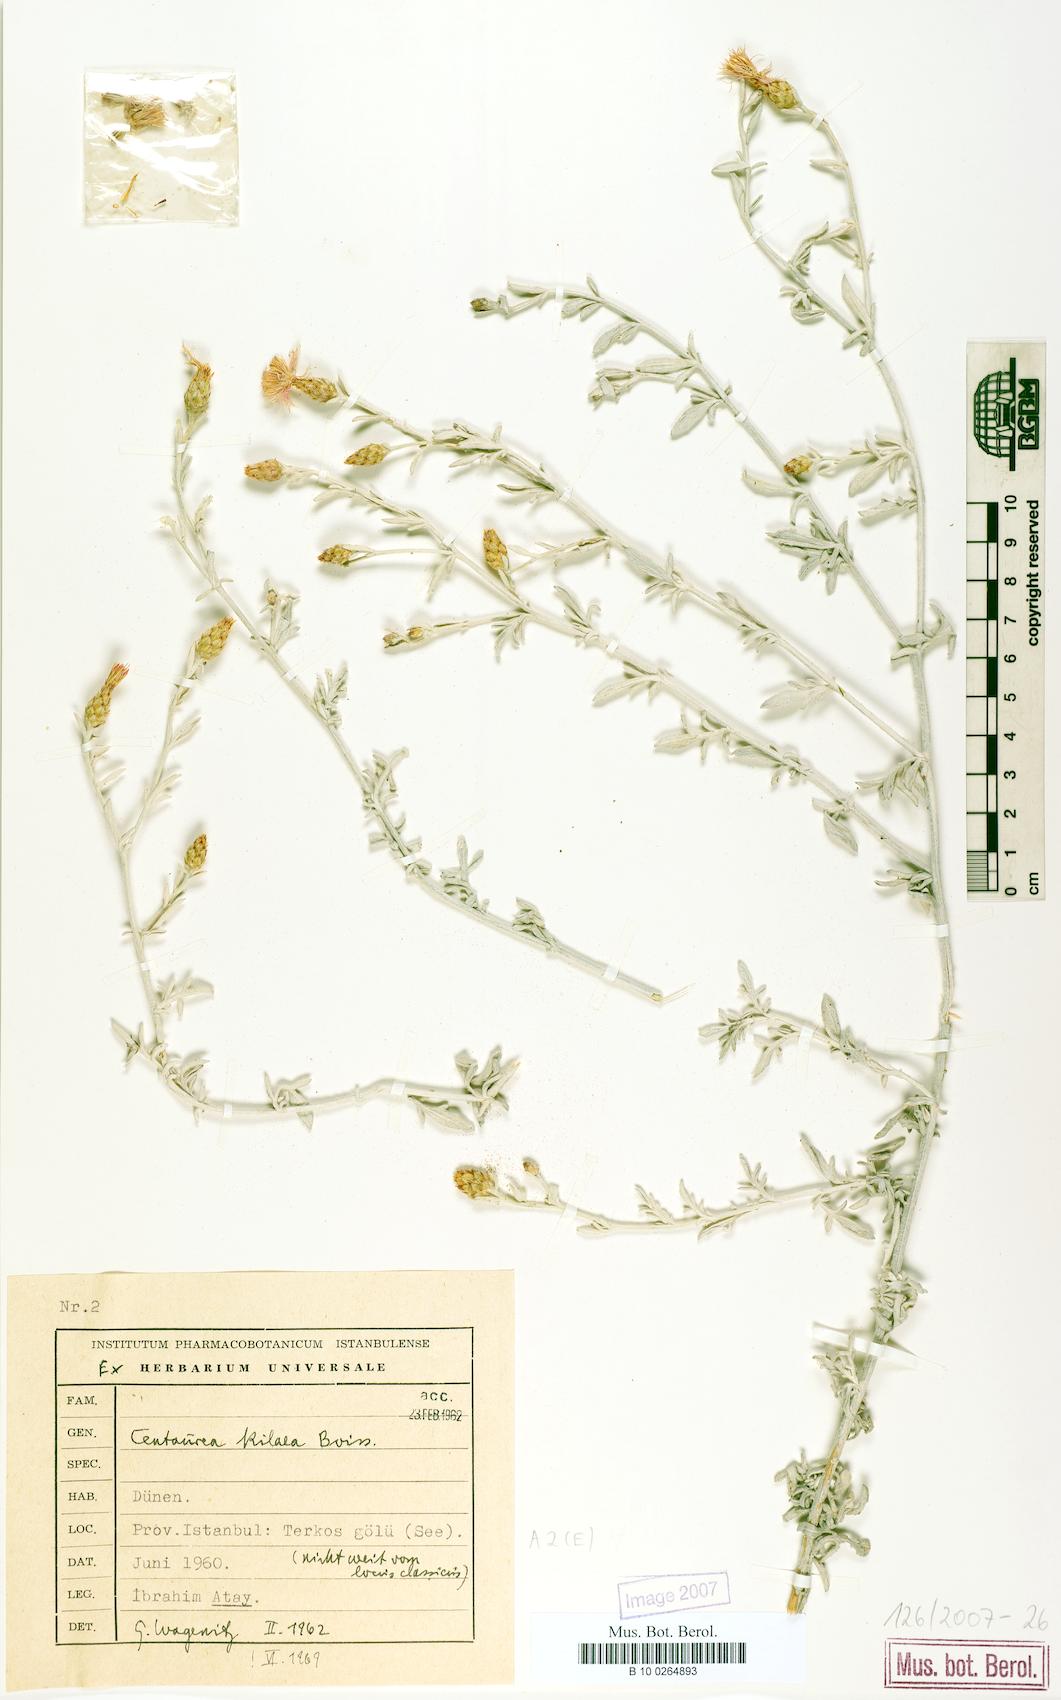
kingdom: Plantae
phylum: Tracheophyta
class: Magnoliopsida
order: Asterales
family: Asteraceae
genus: Centaurea
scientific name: Centaurea kilaea
